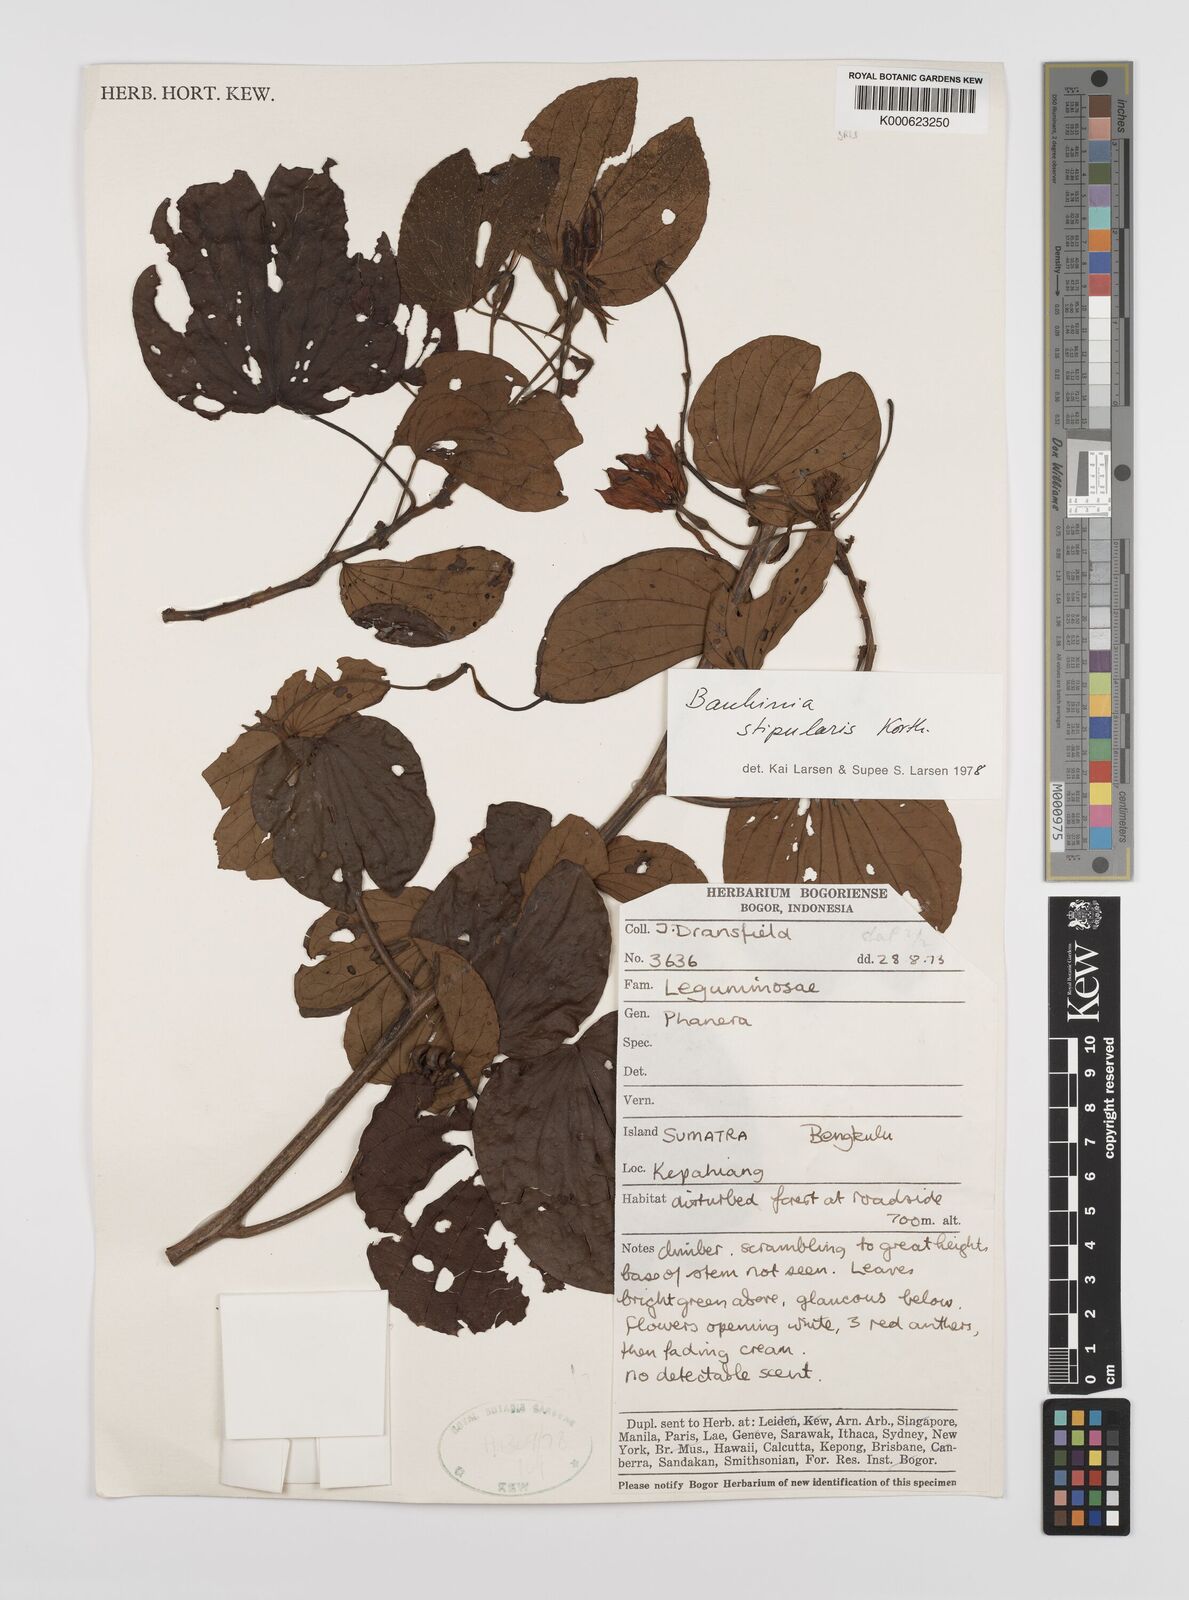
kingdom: Plantae
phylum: Tracheophyta
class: Magnoliopsida
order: Fabales
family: Fabaceae
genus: Phanera
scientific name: Phanera stipularis
